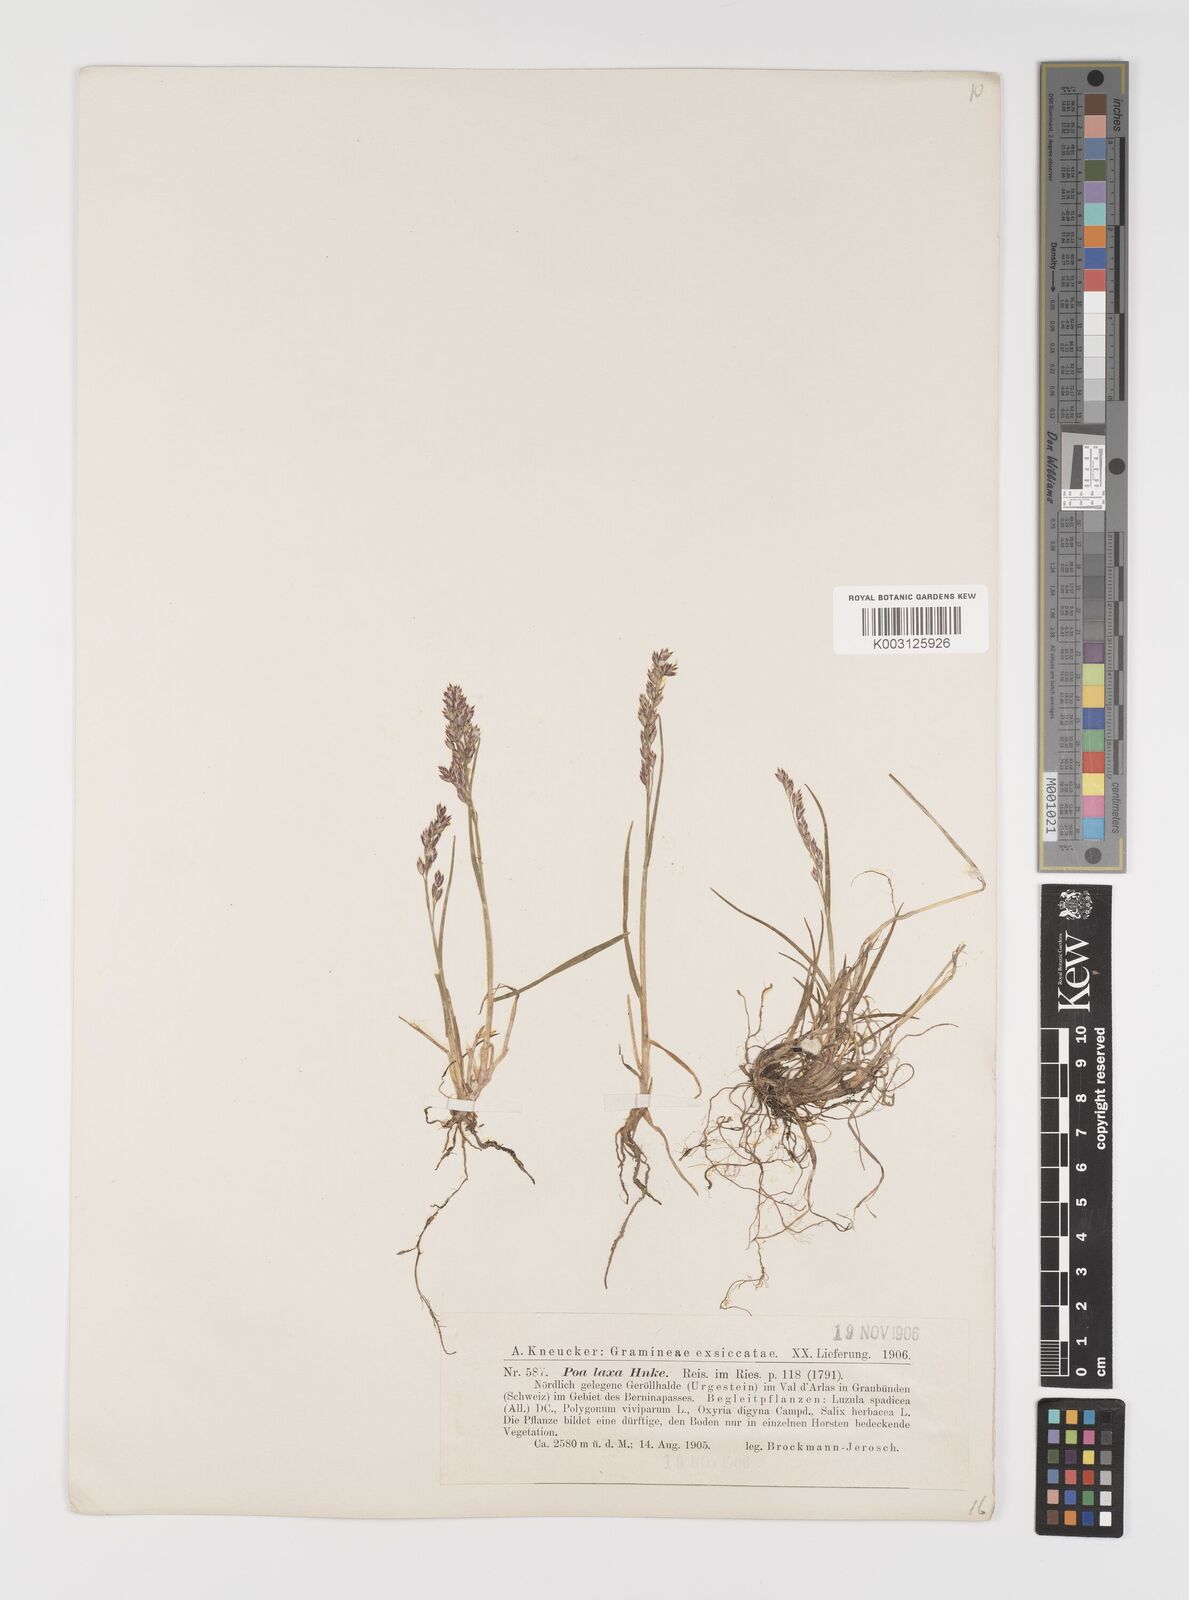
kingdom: Plantae
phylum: Tracheophyta
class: Liliopsida
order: Poales
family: Poaceae
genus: Poa
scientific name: Poa laxa
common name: Lax bluegrass
